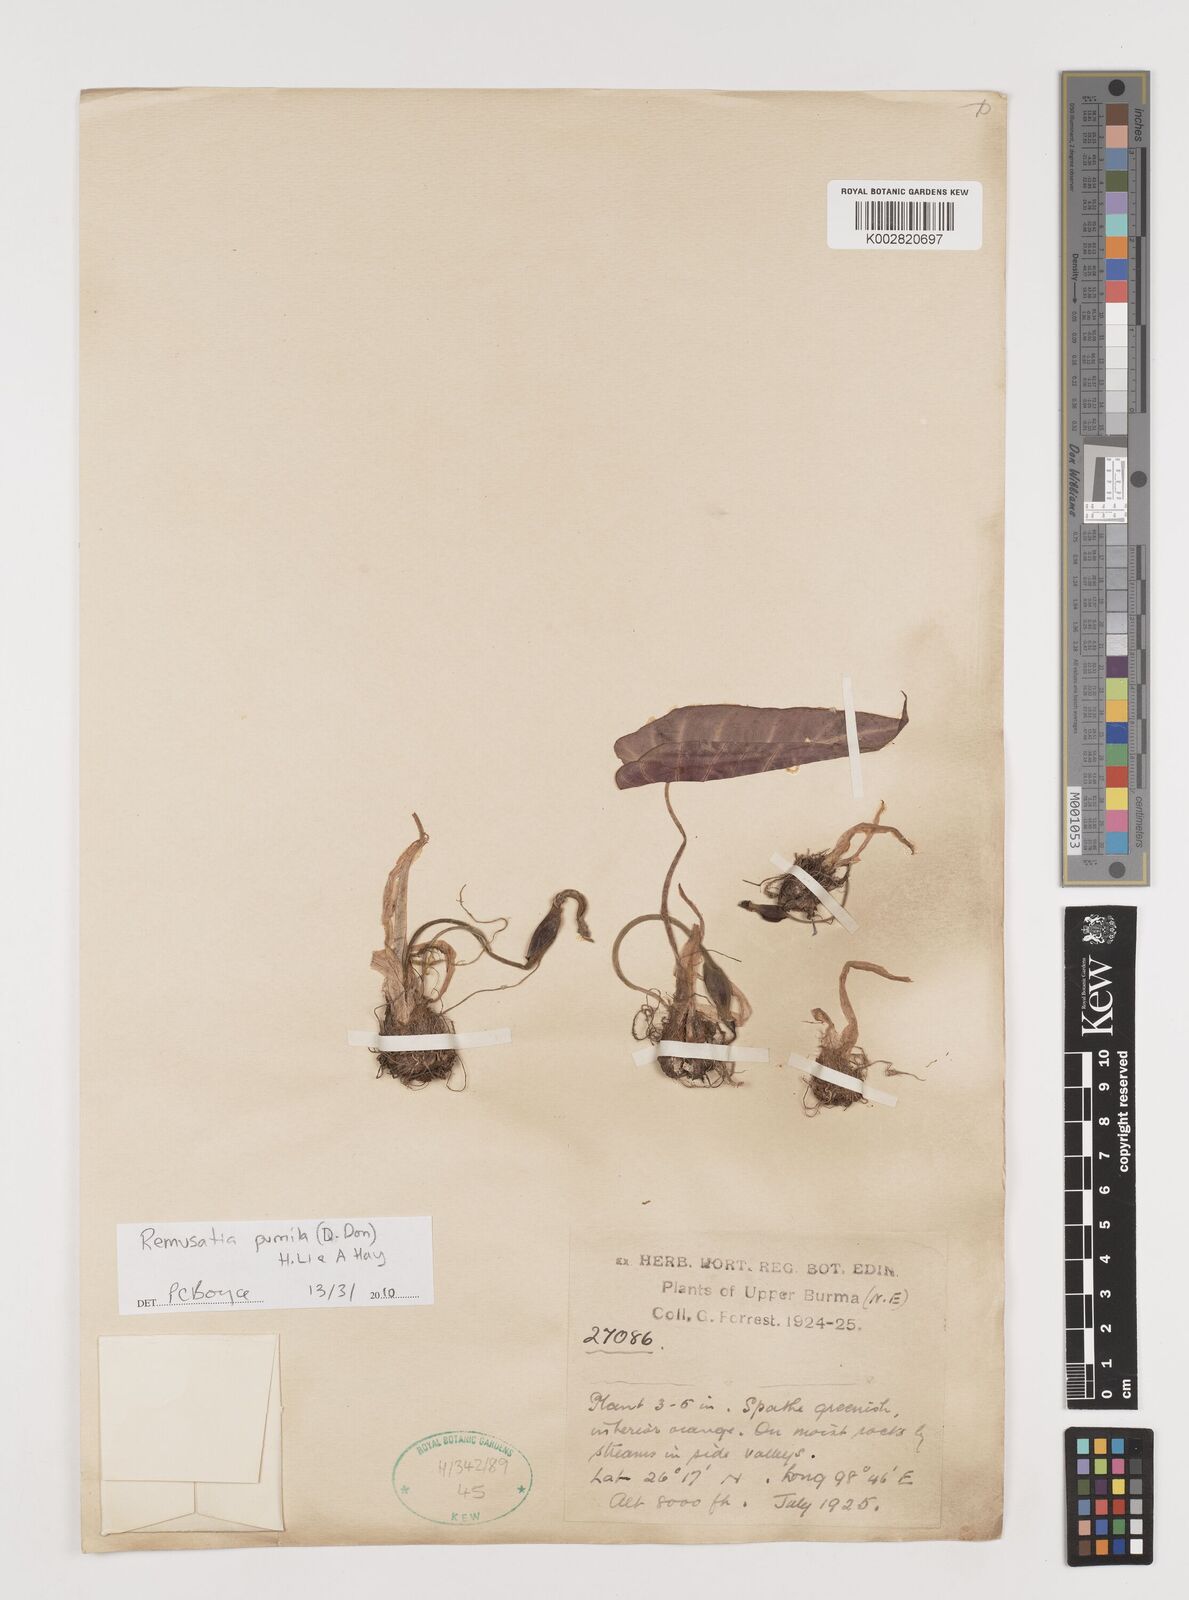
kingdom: Plantae
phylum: Tracheophyta
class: Liliopsida
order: Alismatales
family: Araceae
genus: Remusatia
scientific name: Remusatia pumila
